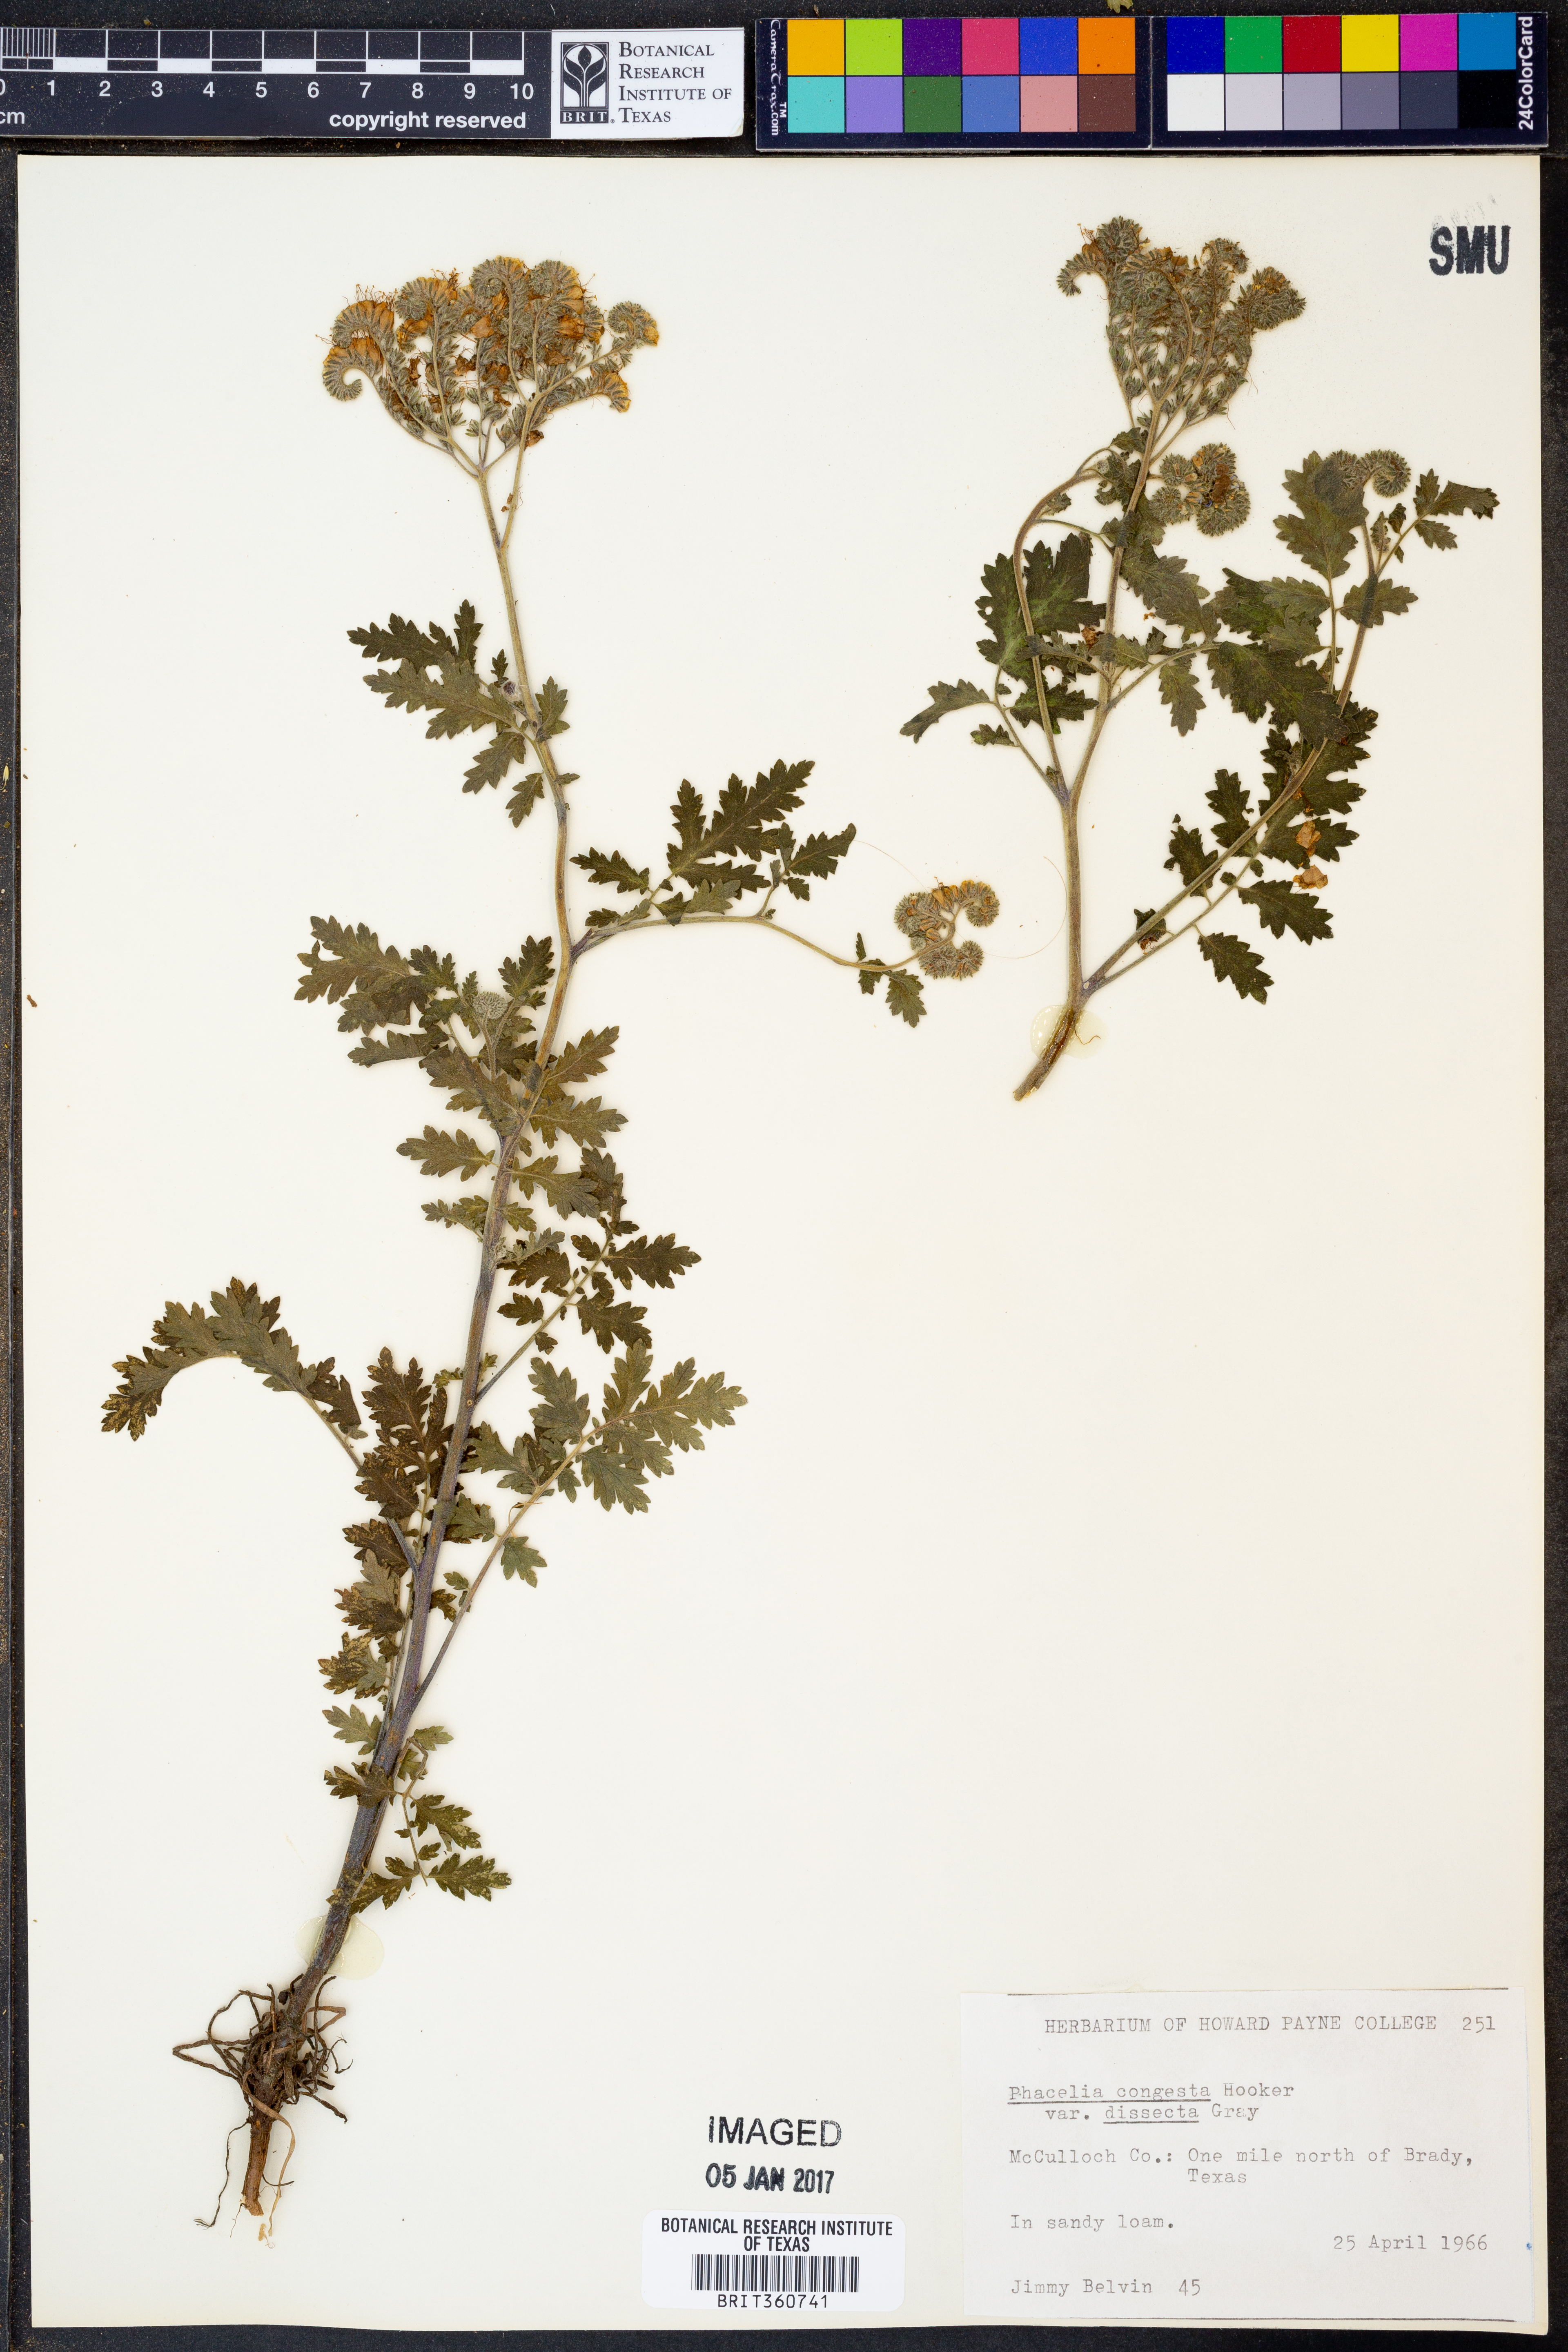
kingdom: Plantae
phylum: Tracheophyta
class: Magnoliopsida
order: Boraginales
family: Hydrophyllaceae
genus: Phacelia
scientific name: Phacelia congesta
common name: Blue curls
